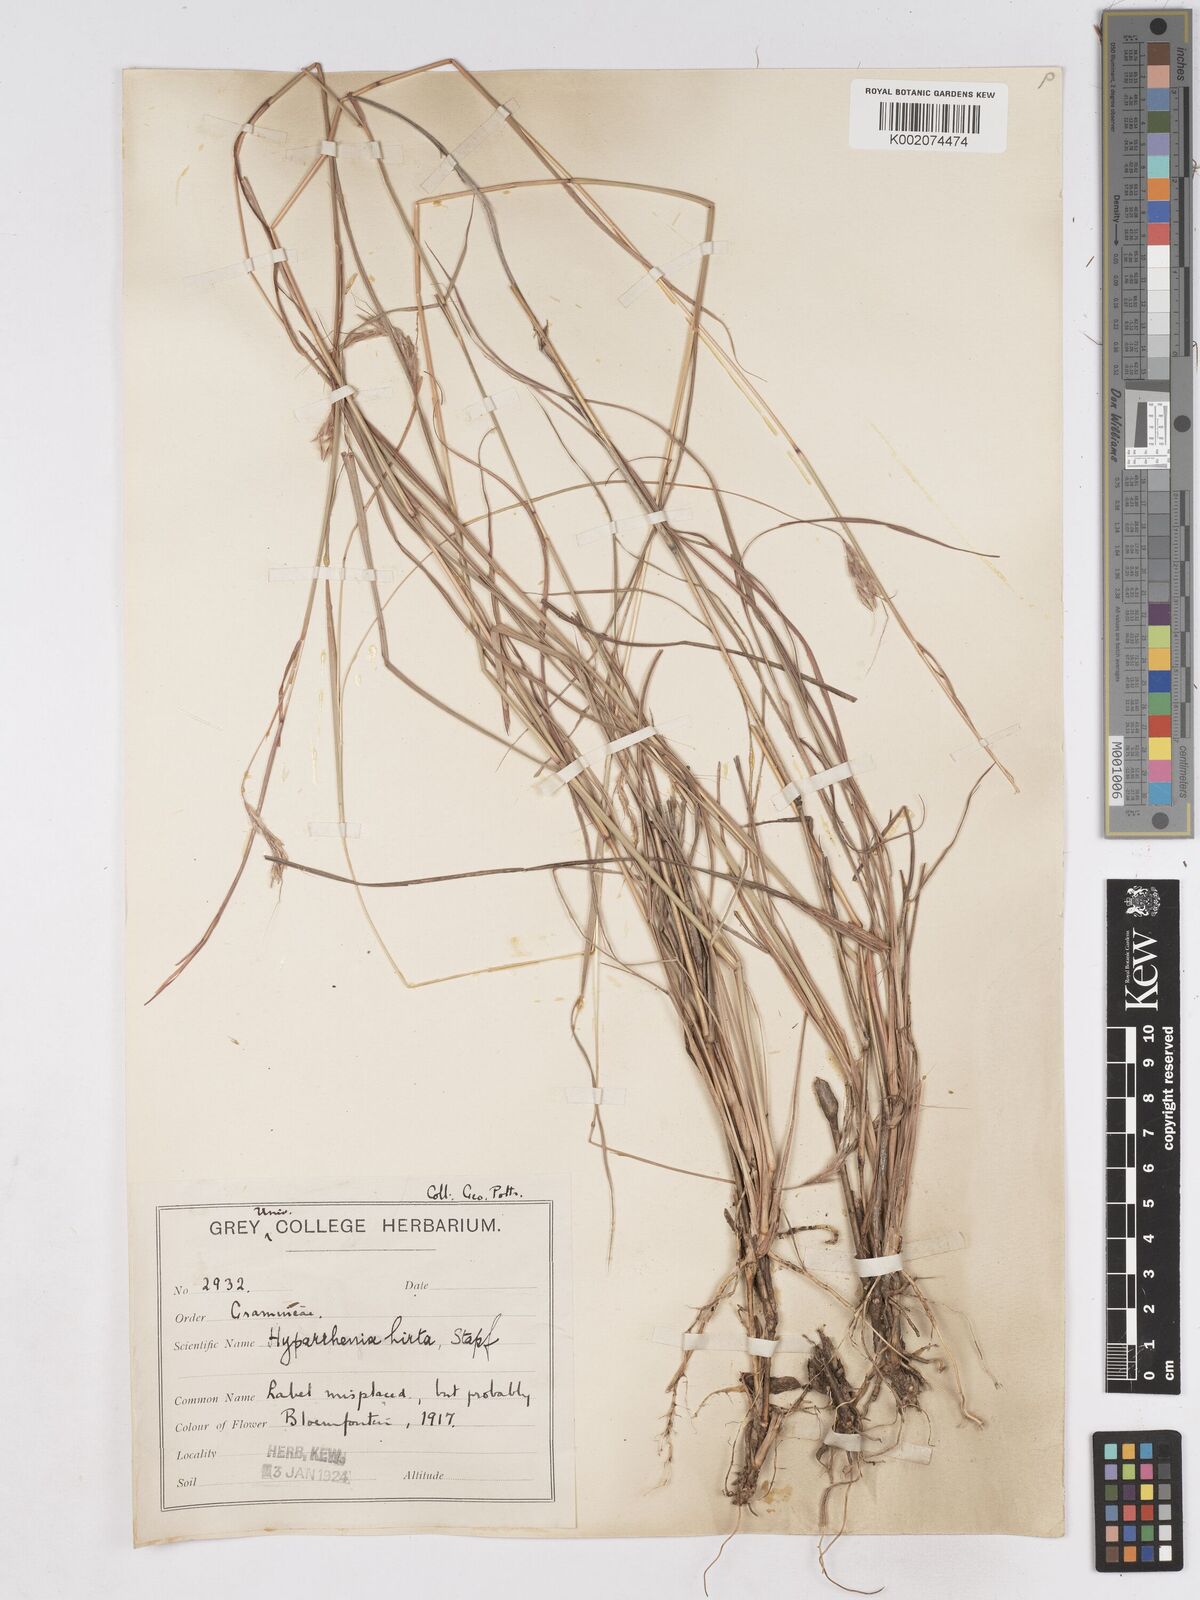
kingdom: Plantae
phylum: Tracheophyta
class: Liliopsida
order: Poales
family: Poaceae
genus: Hyparrhenia
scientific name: Hyparrhenia hirta
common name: Thatching grass
